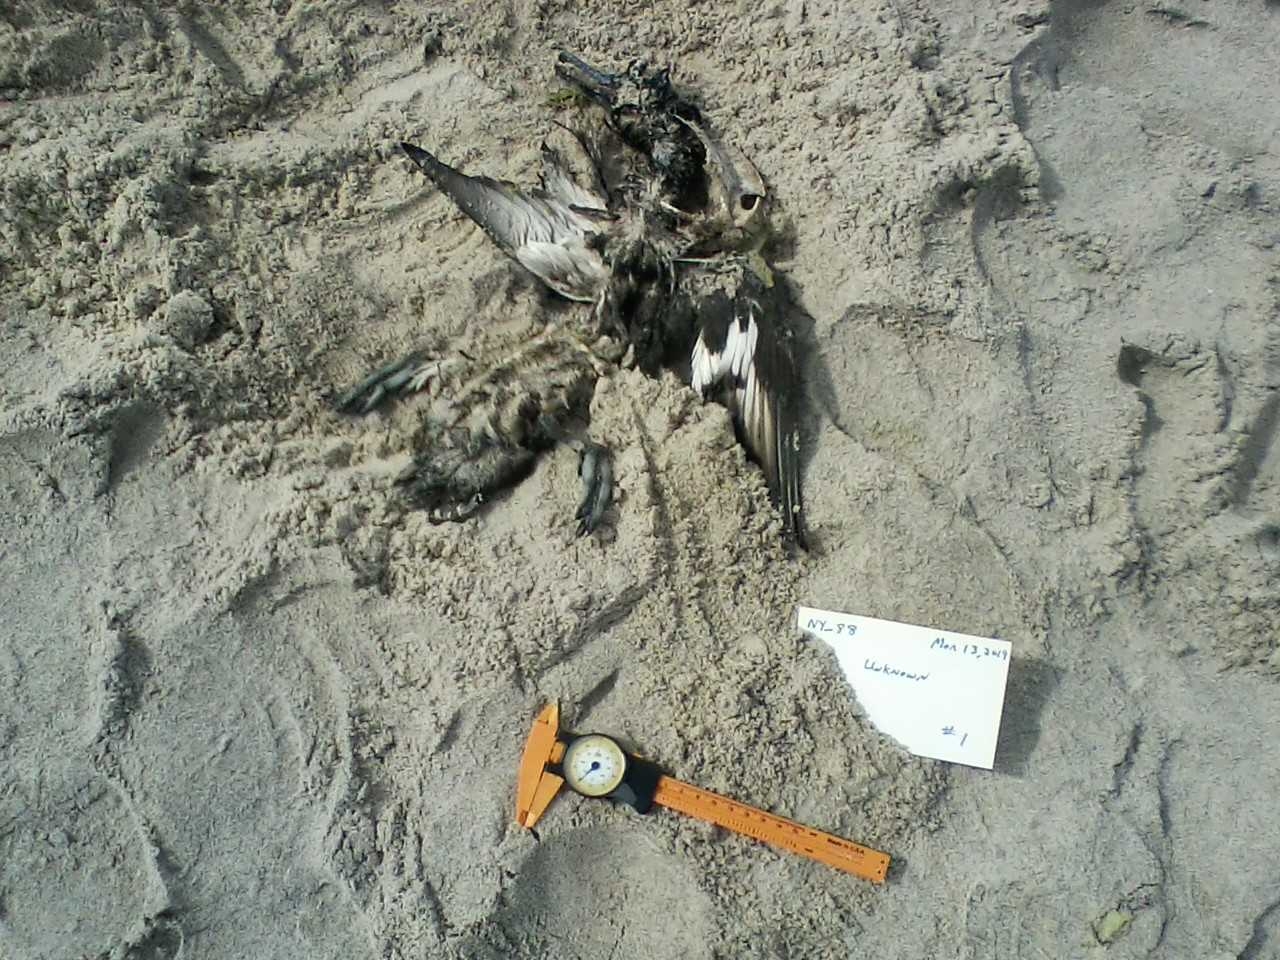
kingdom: Animalia
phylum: Chordata
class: Aves
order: Gaviiformes
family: Gaviidae
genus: Gavia
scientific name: Gavia immer
